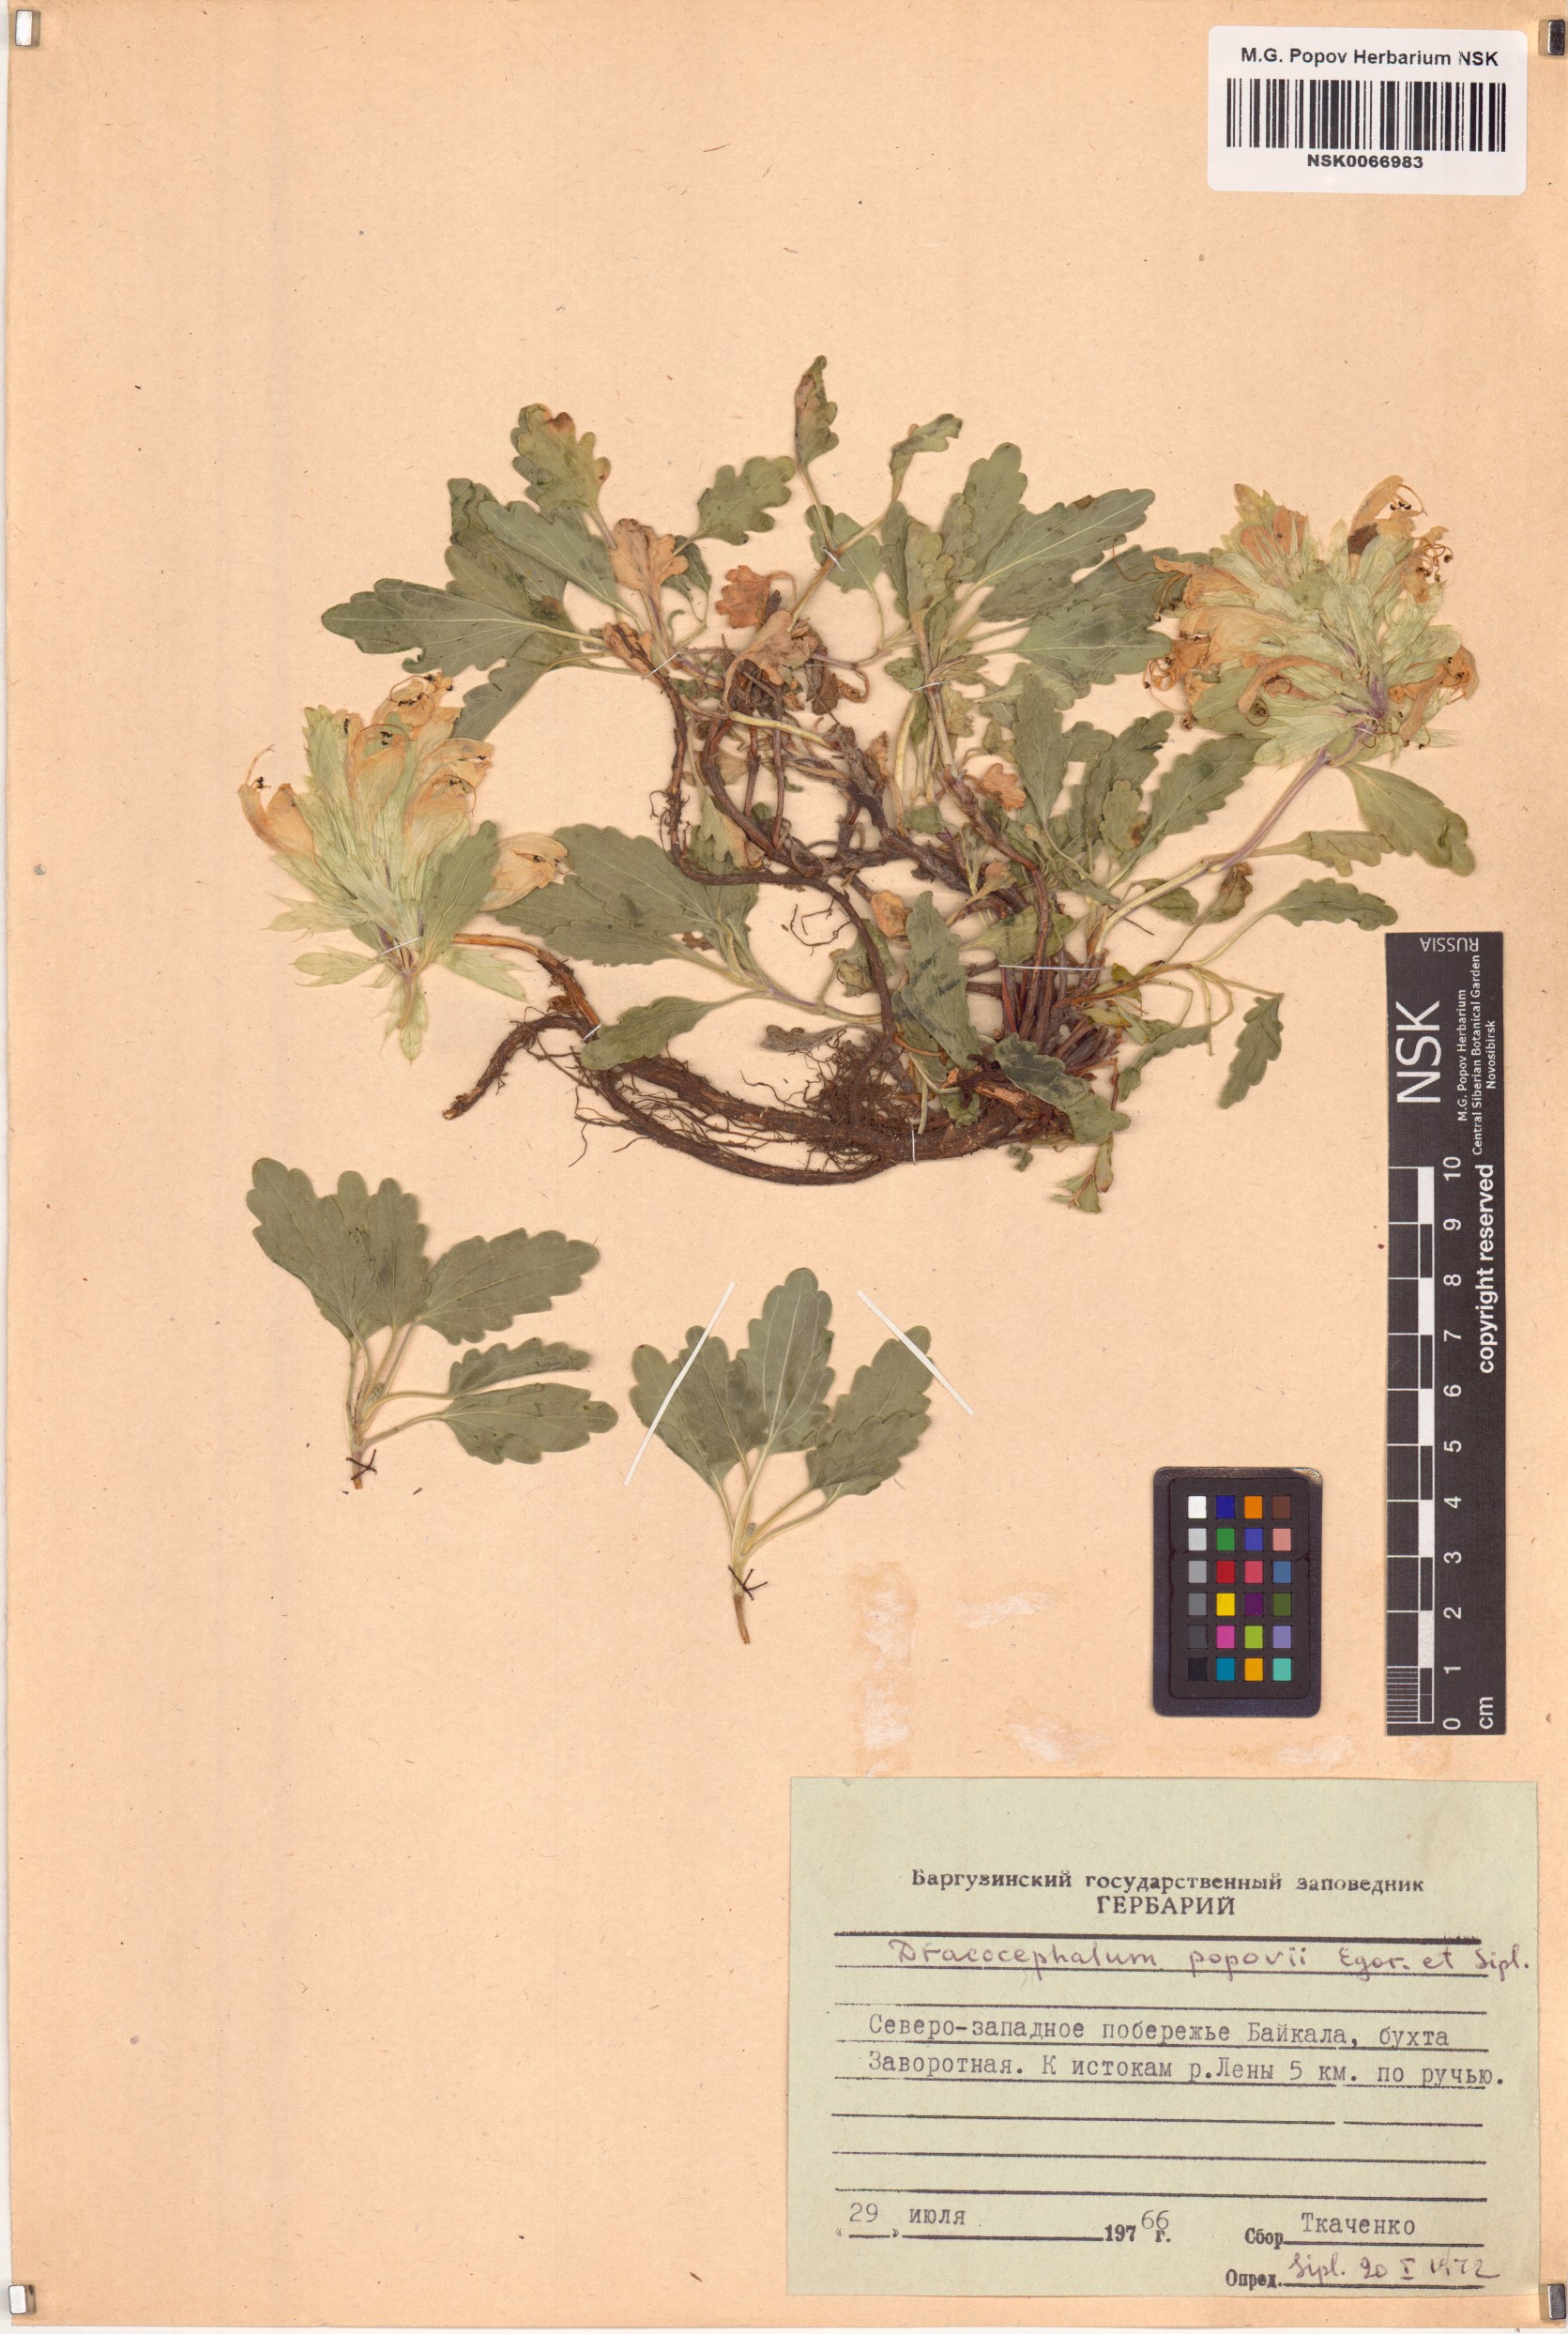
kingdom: Plantae
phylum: Tracheophyta
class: Magnoliopsida
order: Lamiales
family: Lamiaceae
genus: Dracocephalum
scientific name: Dracocephalum popovii
